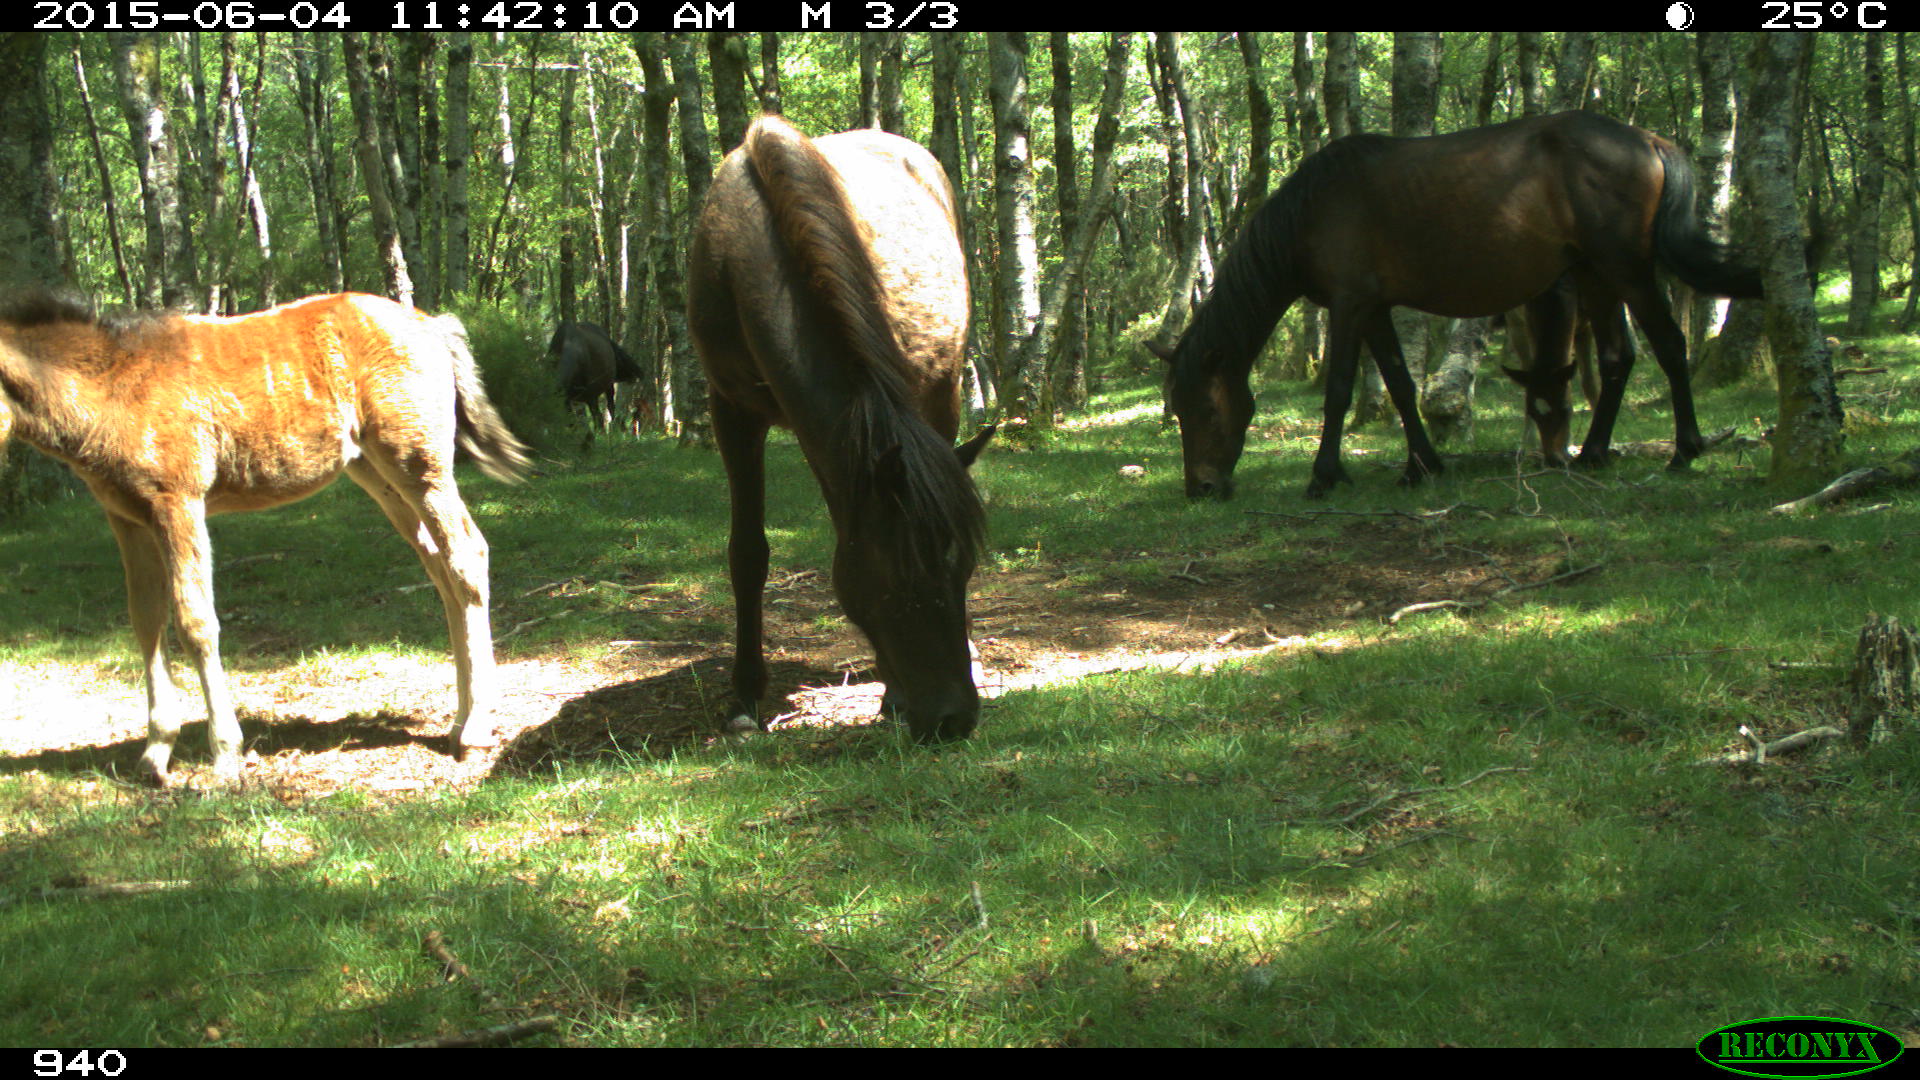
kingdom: Animalia
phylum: Chordata
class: Mammalia
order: Perissodactyla
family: Equidae
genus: Equus
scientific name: Equus caballus
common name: Horse
